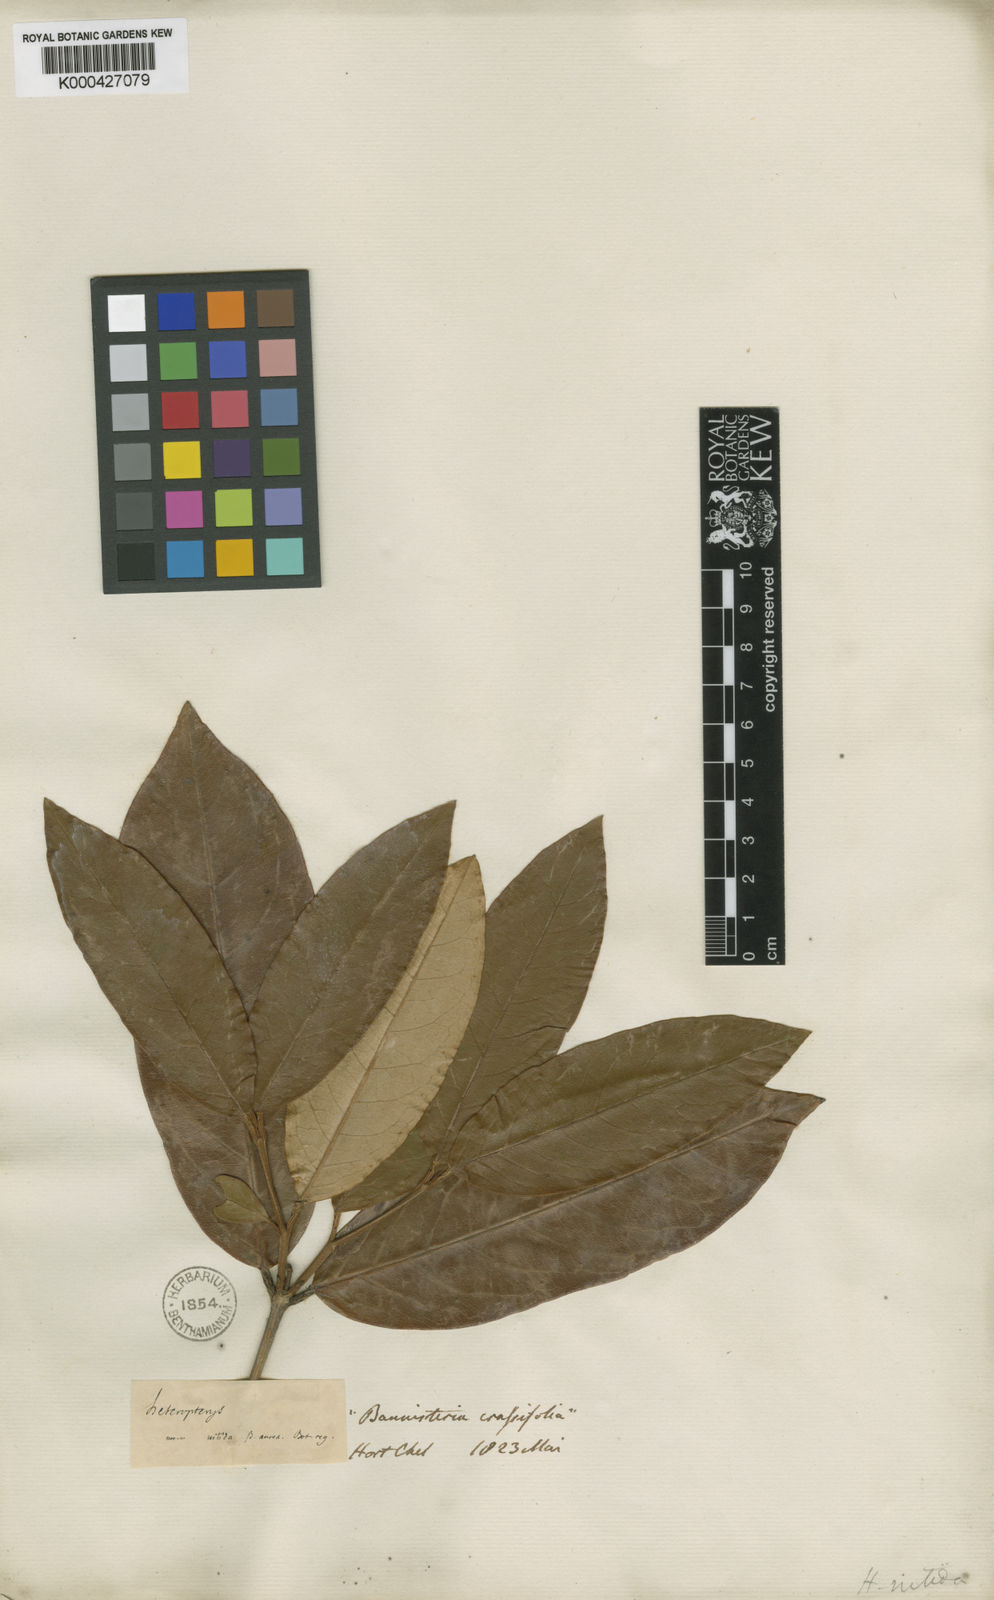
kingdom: Plantae
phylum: Tracheophyta
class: Magnoliopsida
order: Malpighiales
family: Malpighiaceae
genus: Heteropterys
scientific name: Heteropterys nitida
